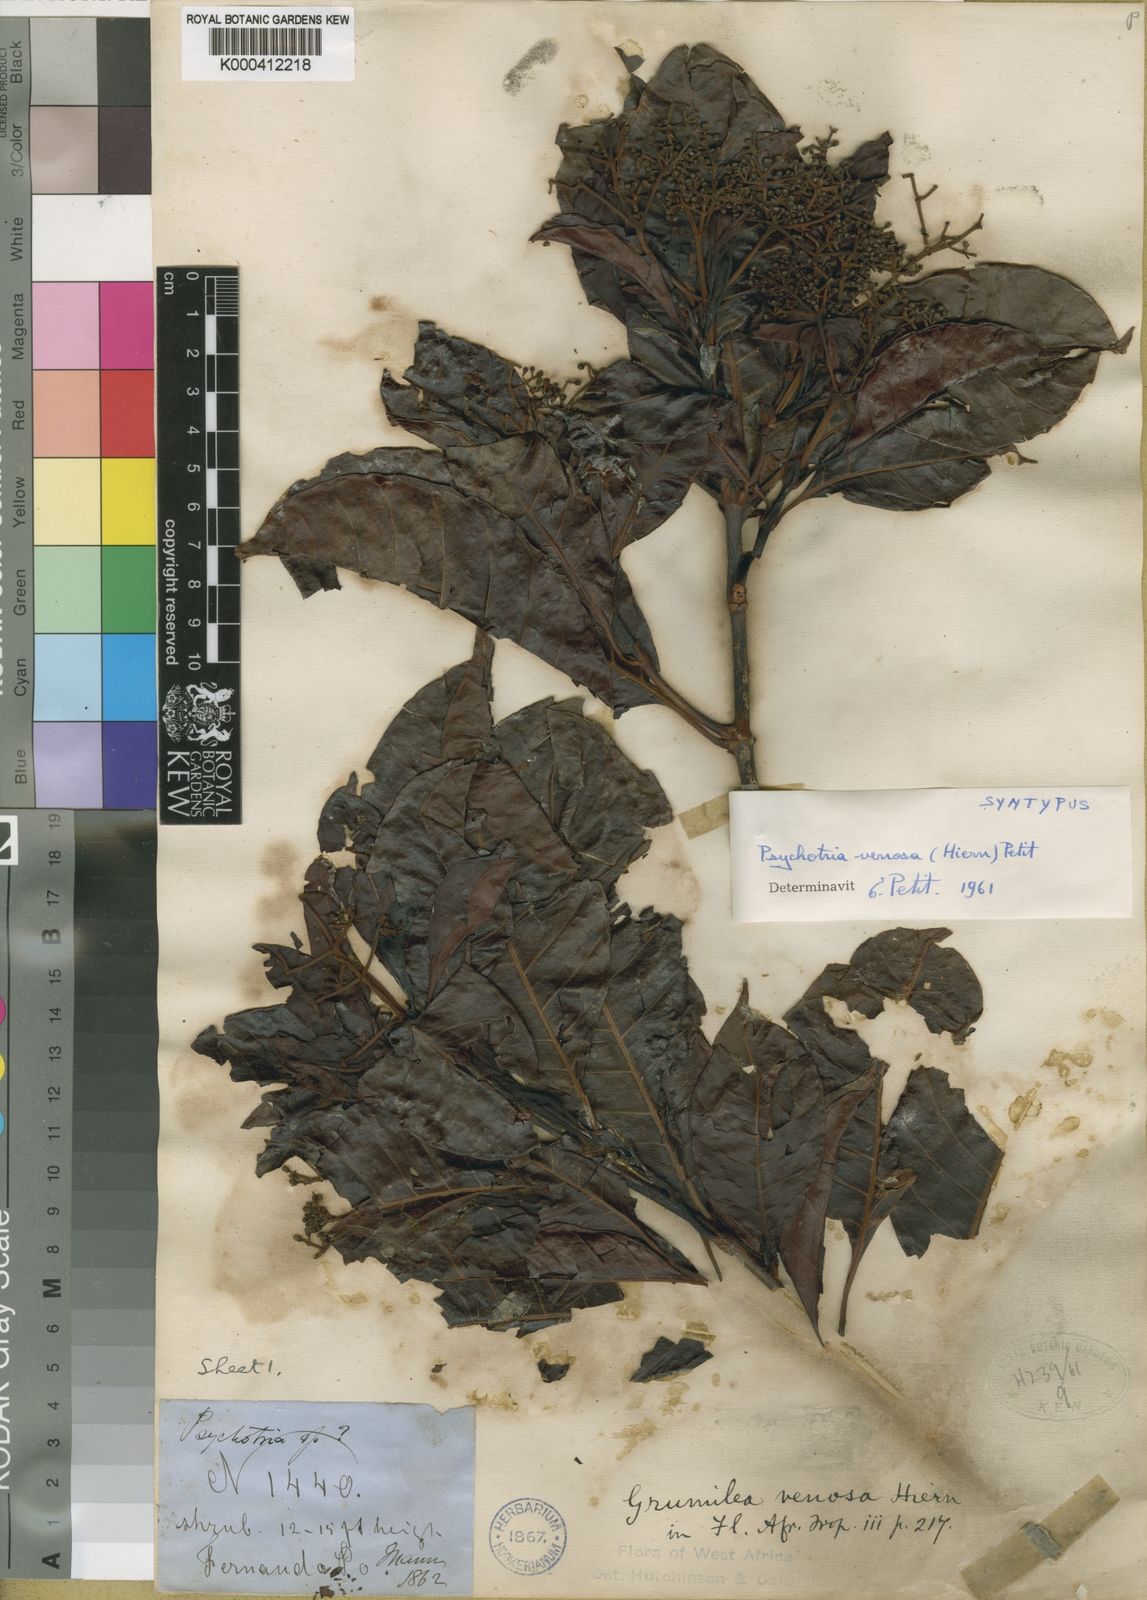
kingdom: Plantae
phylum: Tracheophyta
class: Magnoliopsida
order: Gentianales
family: Rubiaceae
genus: Psychotria
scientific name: Psychotria venosa
